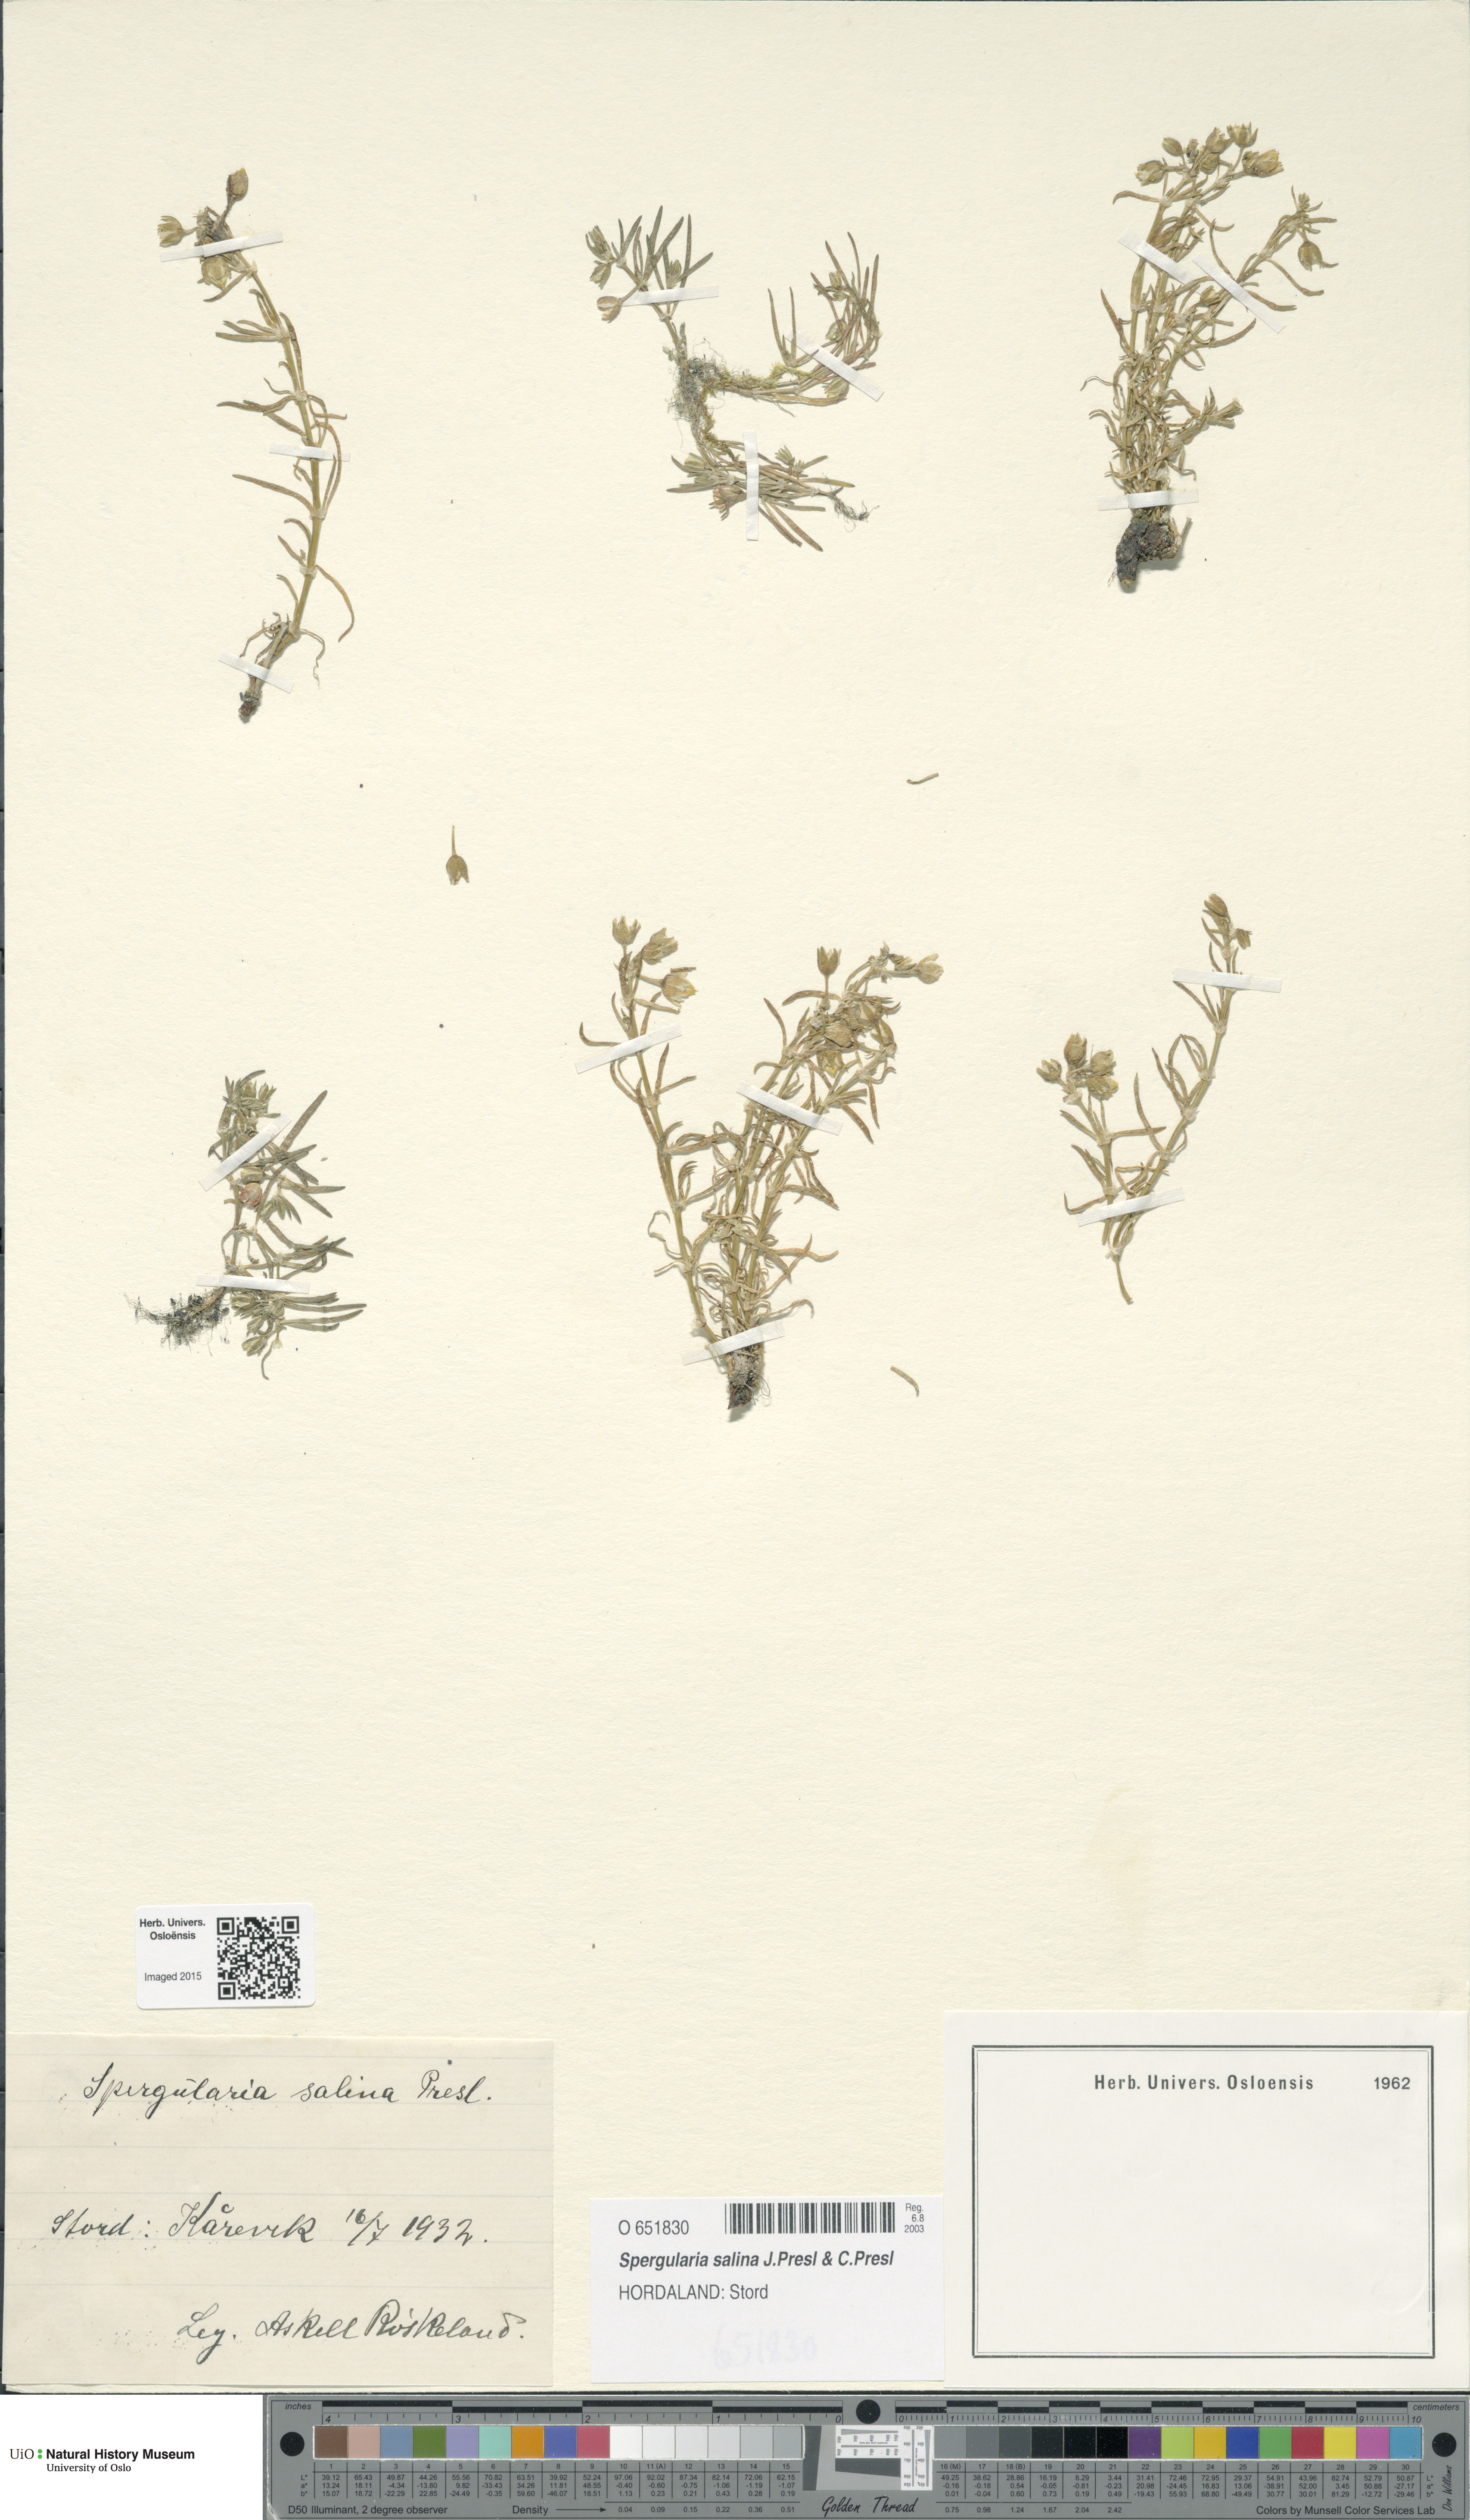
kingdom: Plantae
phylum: Tracheophyta
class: Magnoliopsida
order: Caryophyllales
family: Caryophyllaceae
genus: Spergularia
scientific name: Spergularia marina
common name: Lesser sea-spurrey
